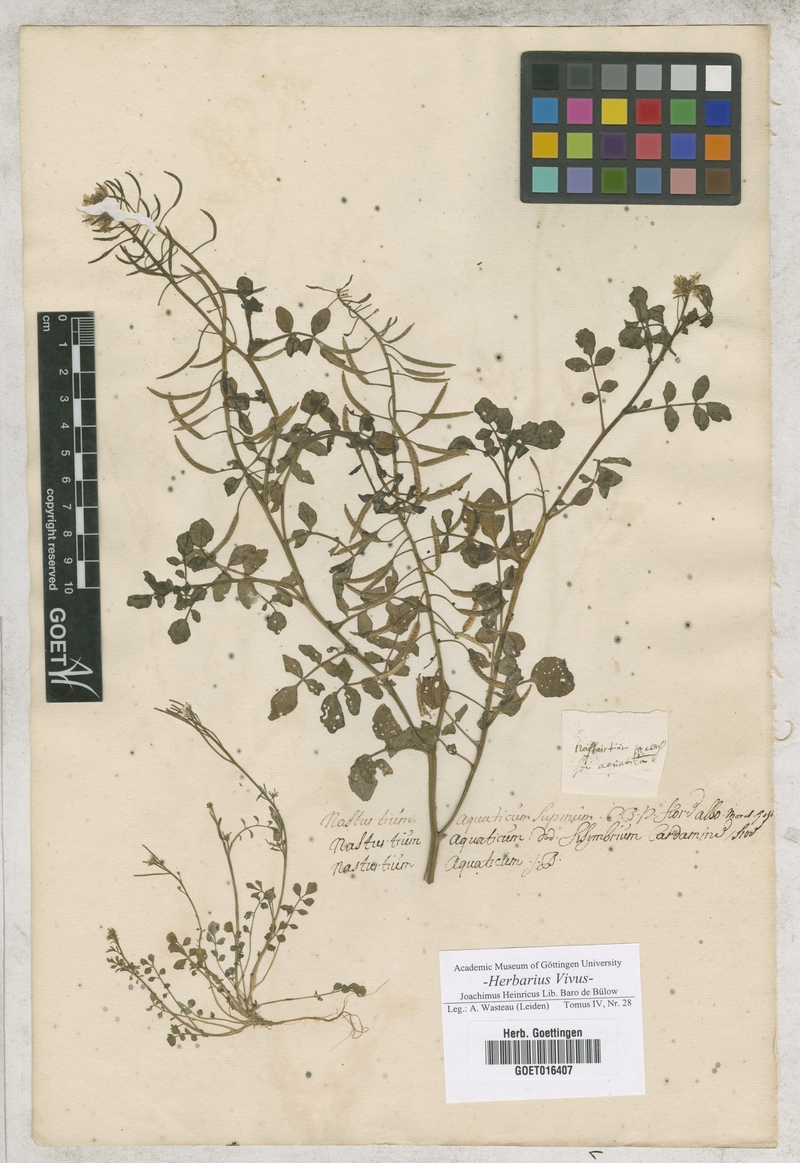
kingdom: Plantae
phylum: Tracheophyta
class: Magnoliopsida
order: Brassicales
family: Brassicaceae
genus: Nasturtium
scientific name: Nasturtium officinale
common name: Watercress
